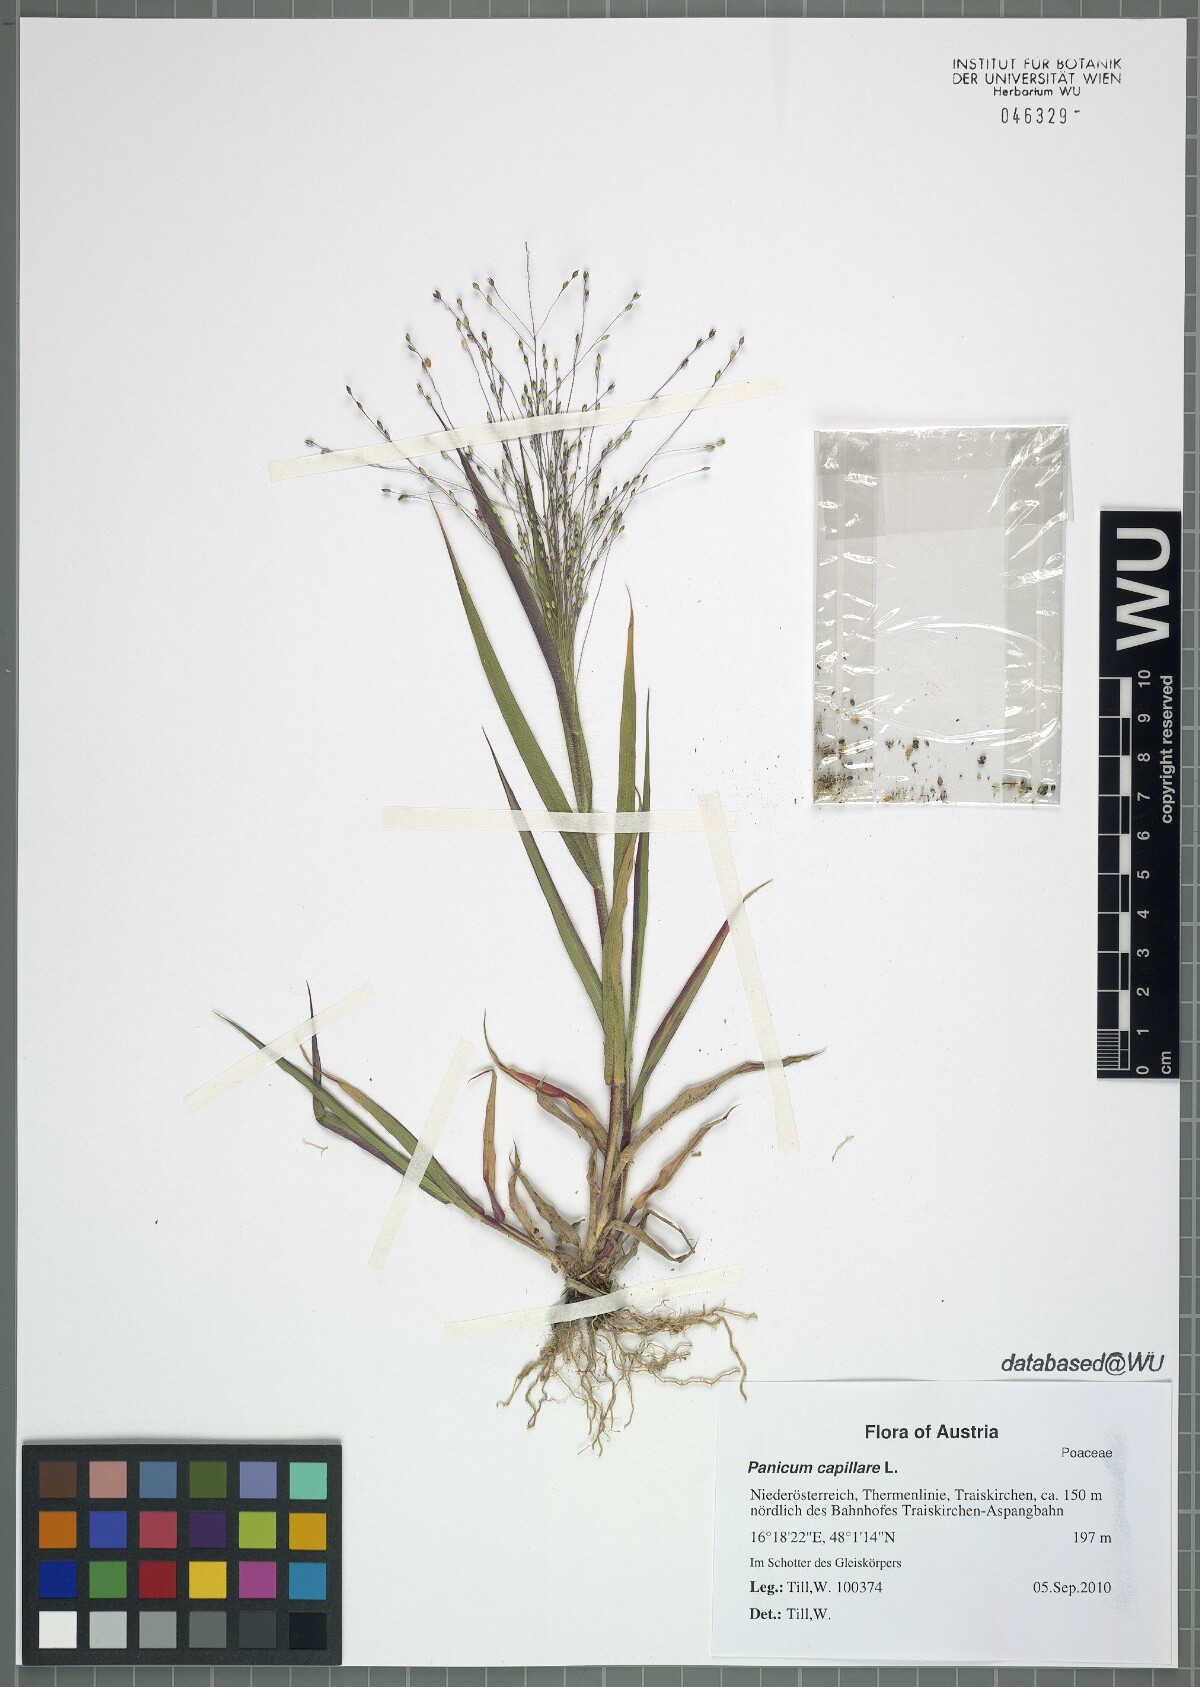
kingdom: Plantae
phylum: Tracheophyta
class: Liliopsida
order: Poales
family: Poaceae
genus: Panicum
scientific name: Panicum capillare
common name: Witch-grass
